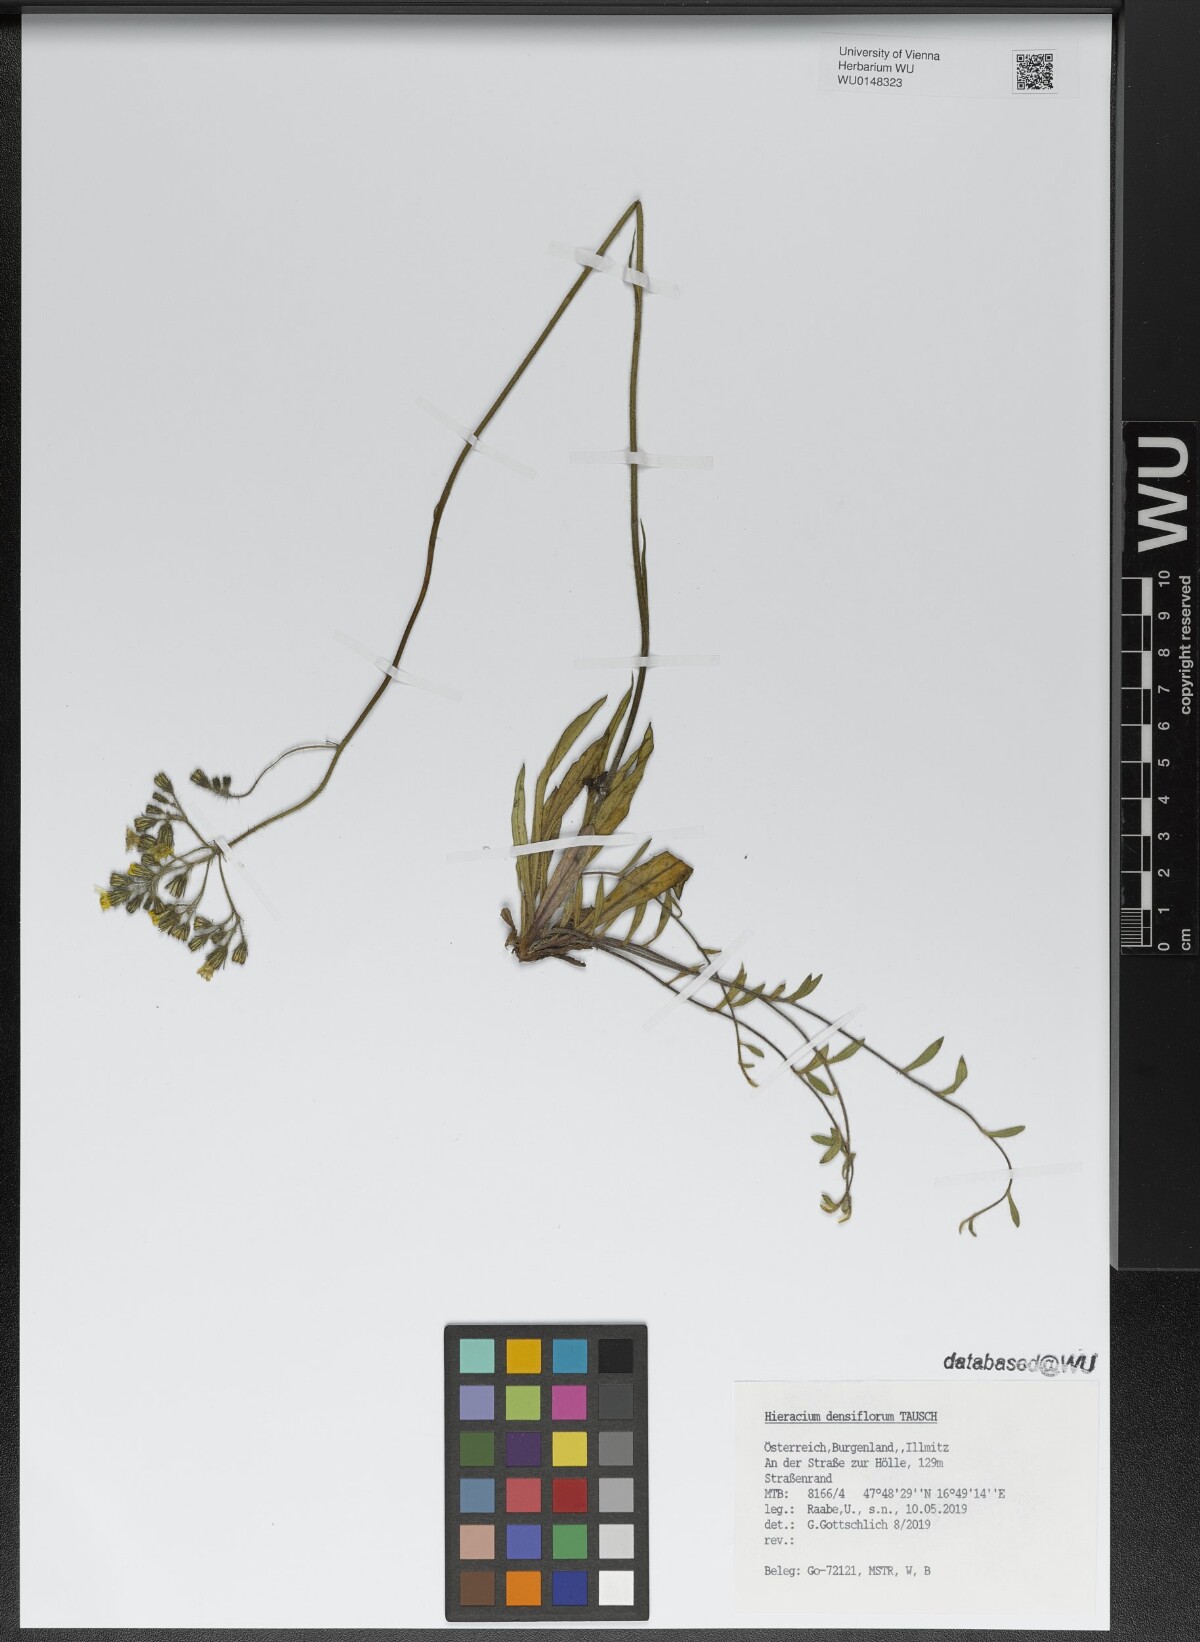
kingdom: Plantae
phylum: Tracheophyta
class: Magnoliopsida
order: Asterales
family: Asteraceae
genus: Pilosella
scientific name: Pilosella densiflora
